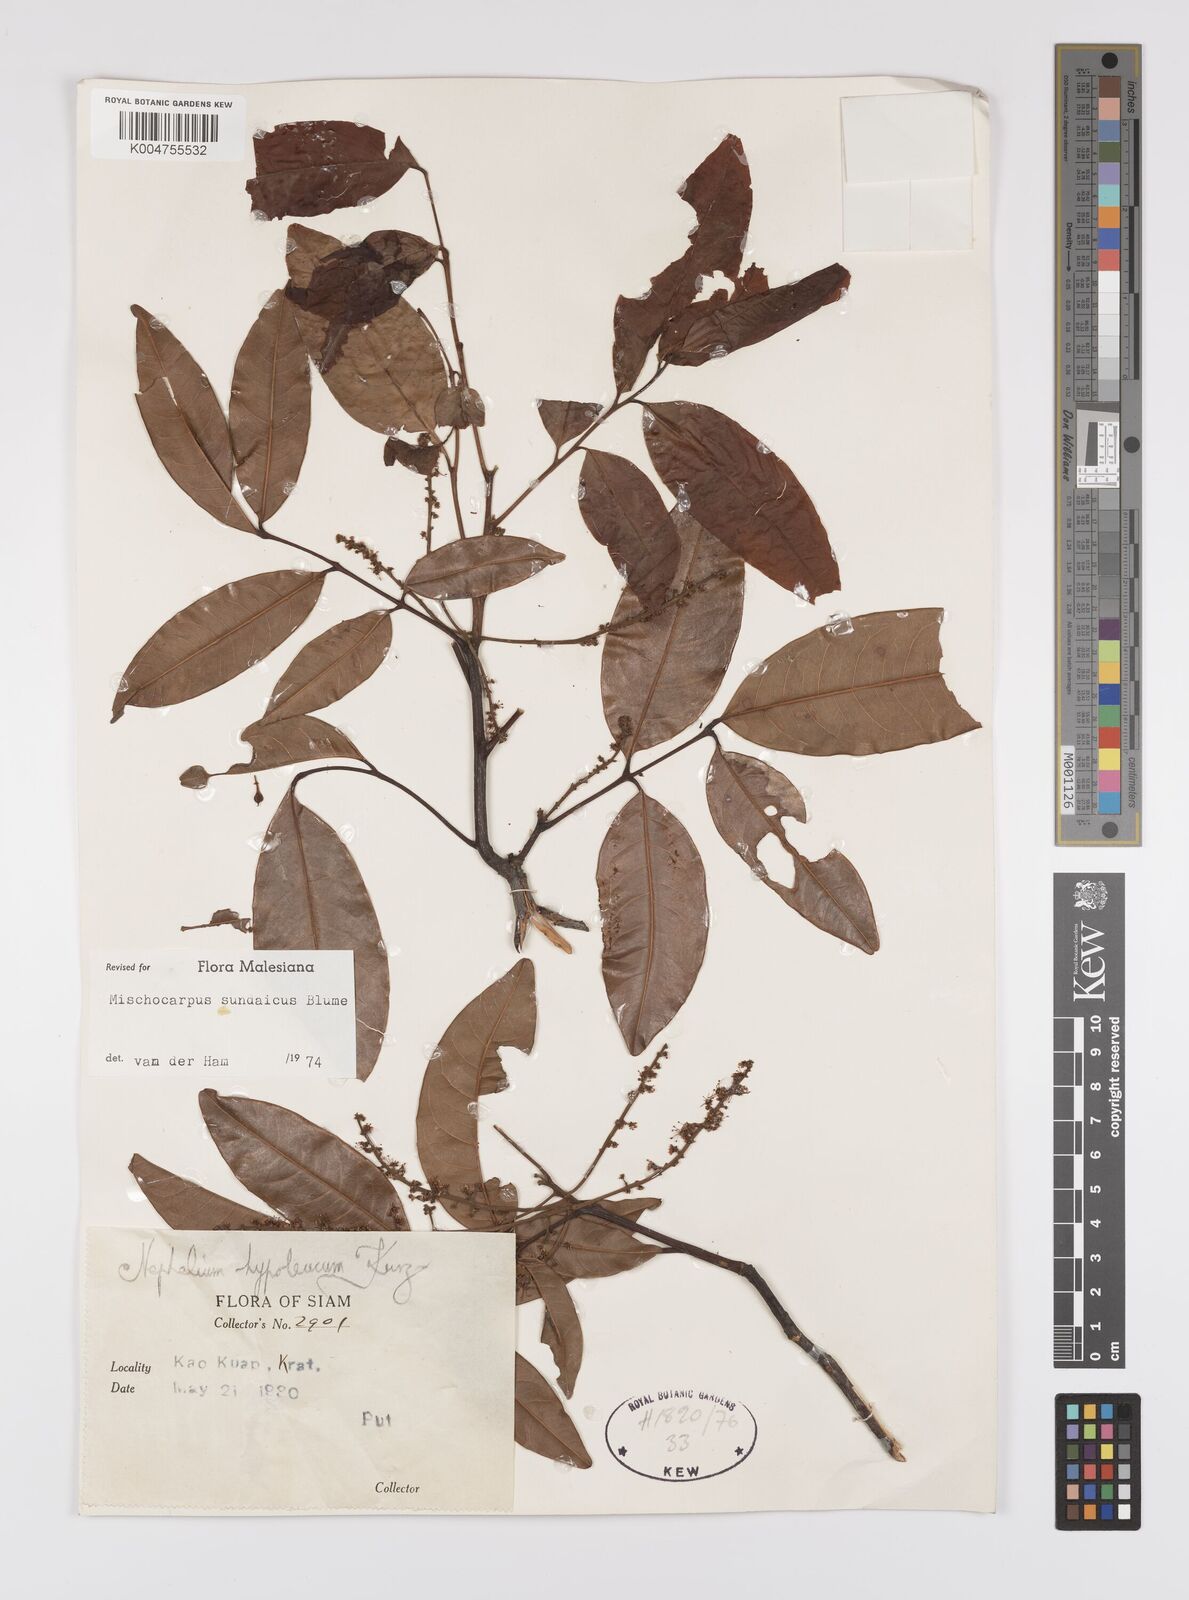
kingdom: Plantae
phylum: Tracheophyta
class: Magnoliopsida
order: Sapindales
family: Sapindaceae
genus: Mischocarpus
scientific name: Mischocarpus sundaicus
